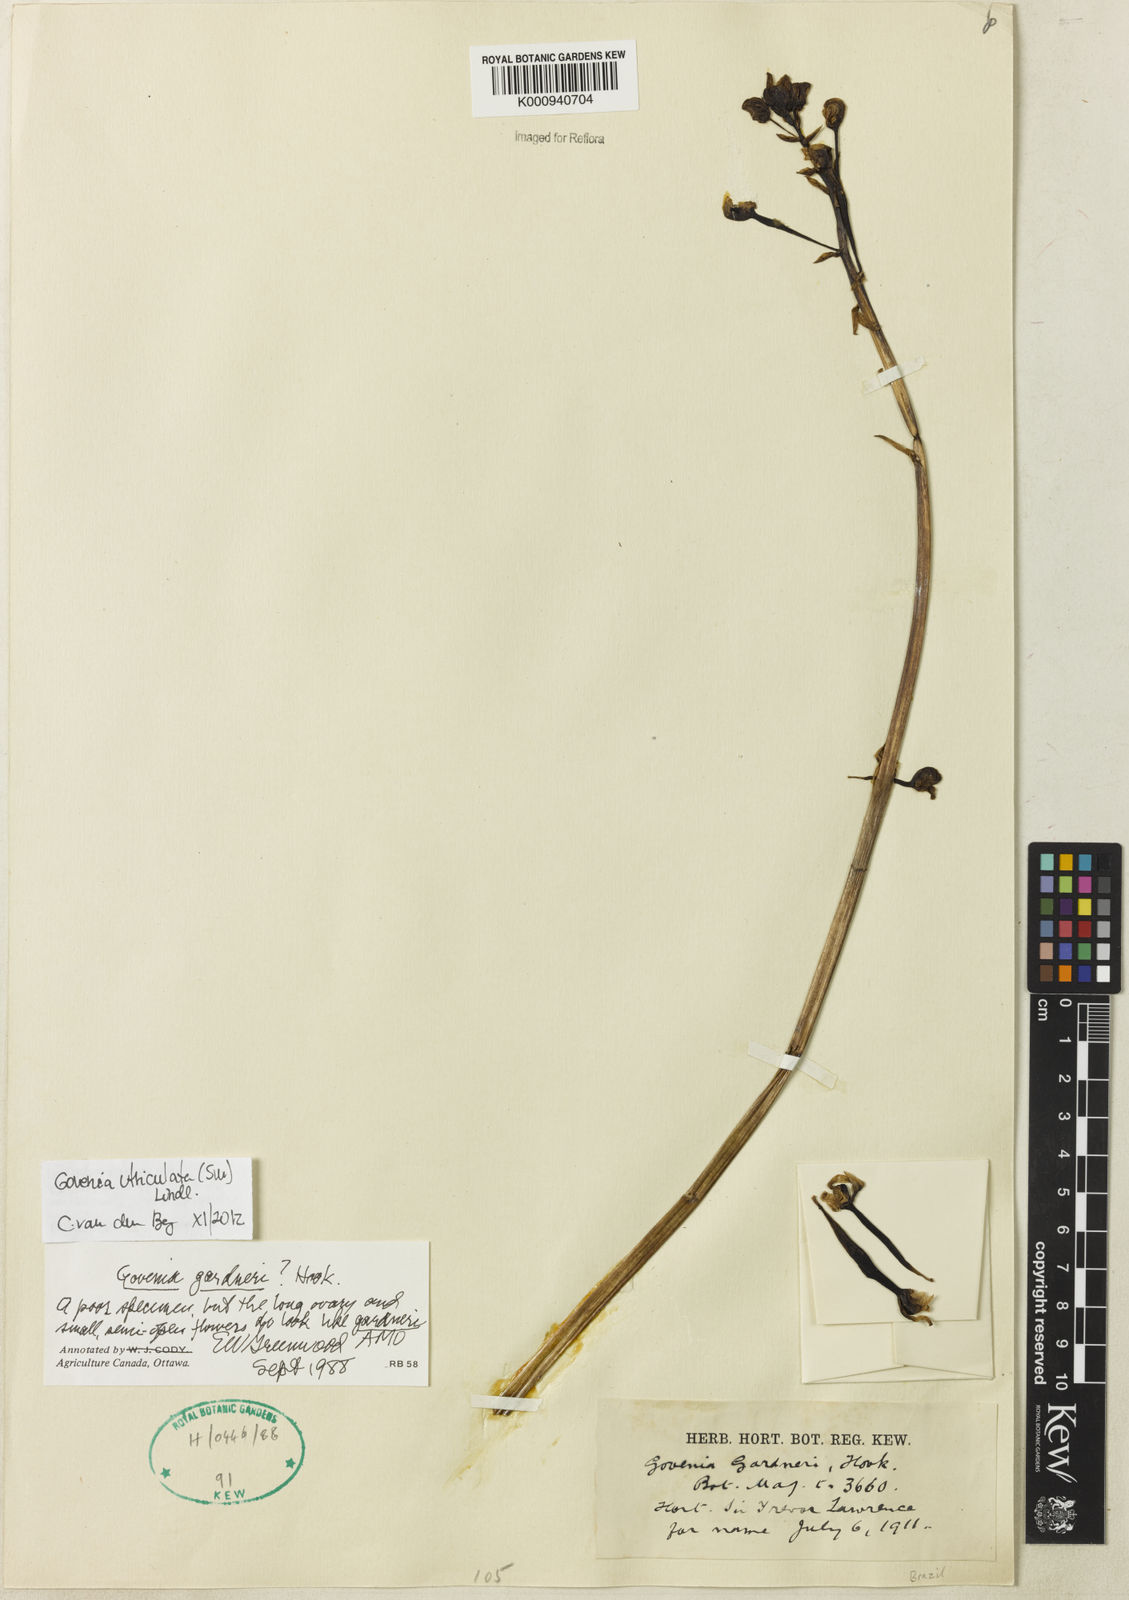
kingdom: Plantae
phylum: Tracheophyta
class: Liliopsida
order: Asparagales
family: Orchidaceae
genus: Govenia
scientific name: Govenia utriculata
